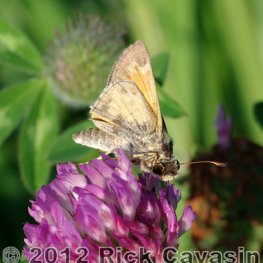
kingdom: Animalia
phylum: Arthropoda
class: Insecta
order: Lepidoptera
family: Hesperiidae
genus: Atalopedes
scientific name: Atalopedes campestris
